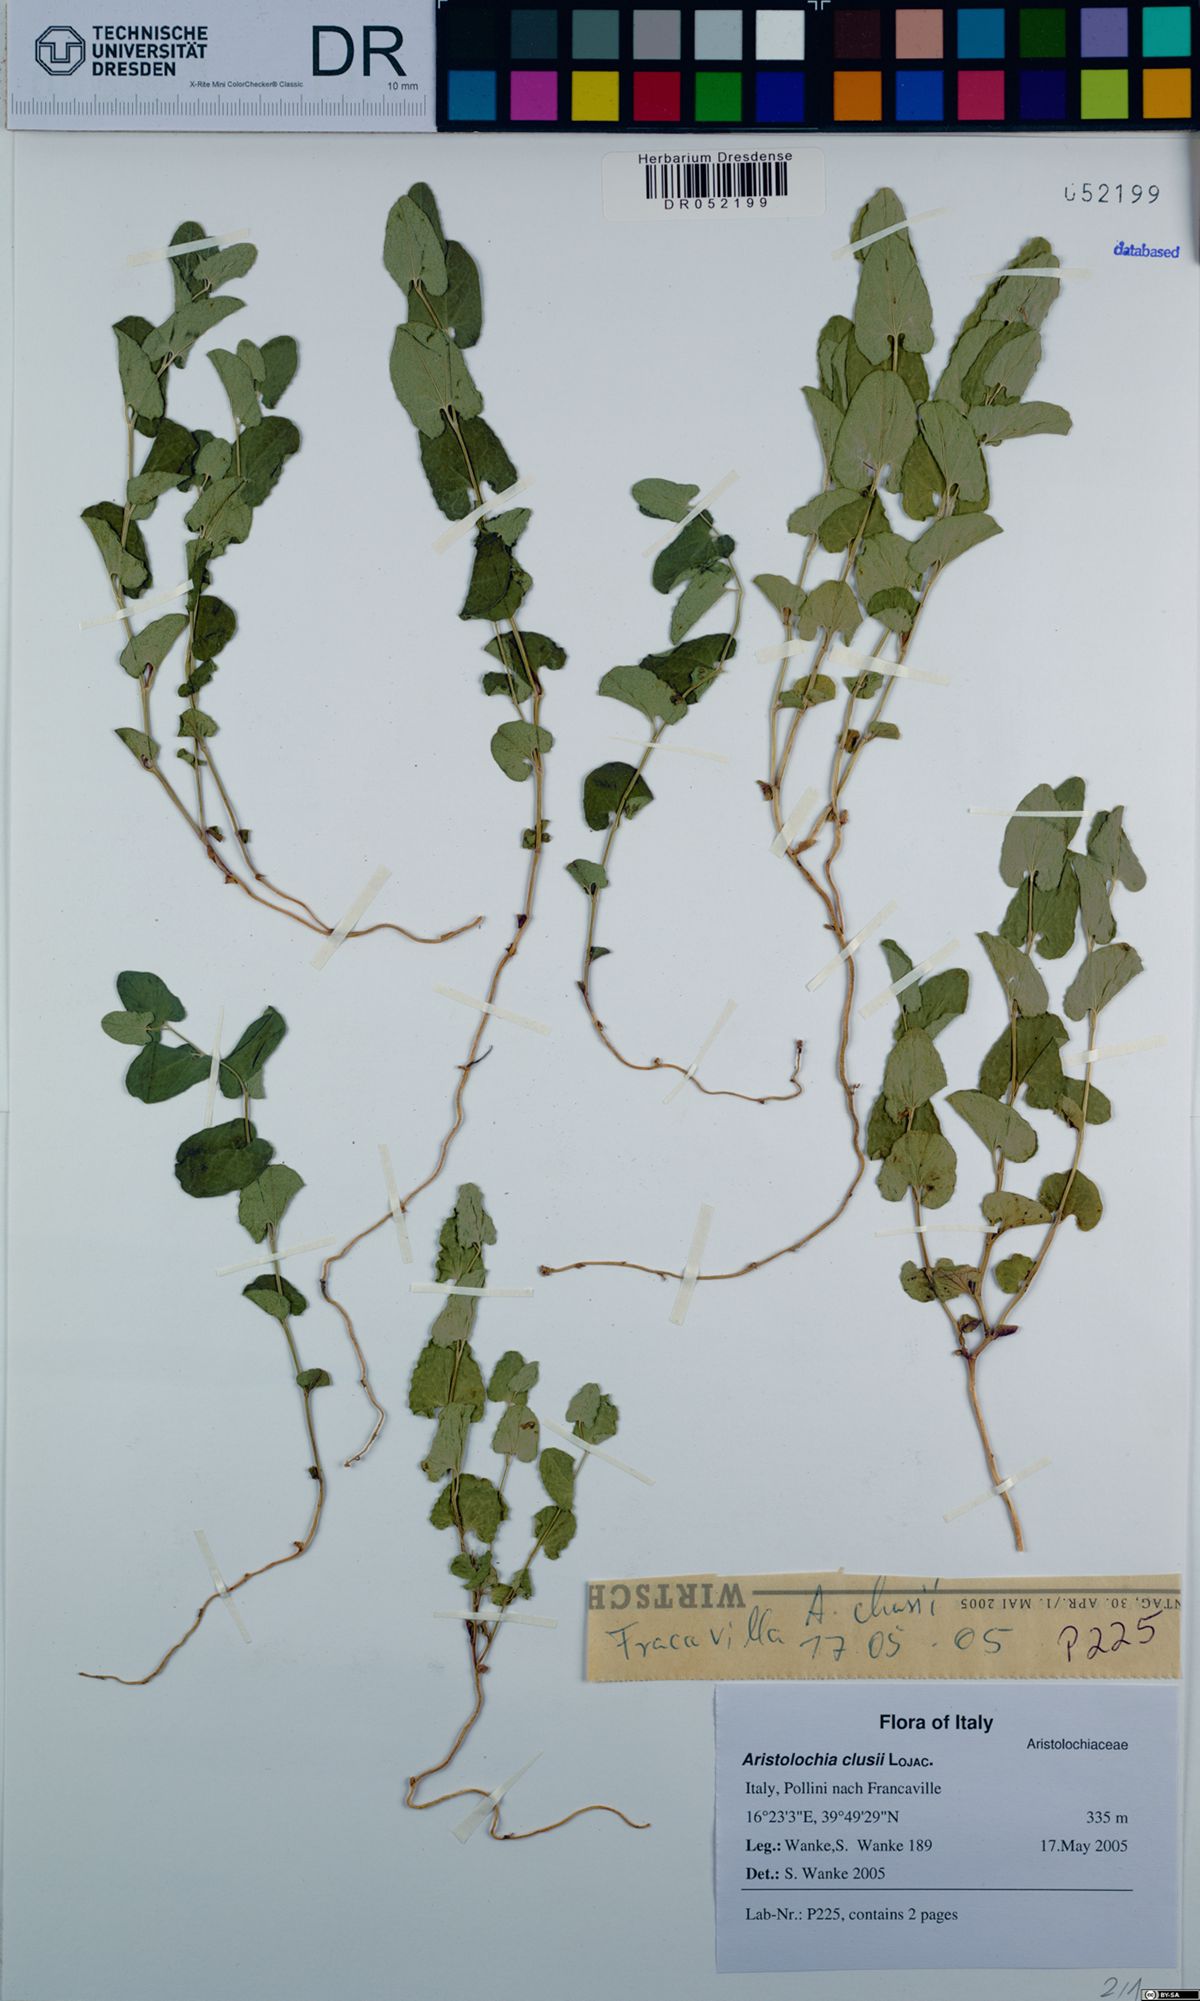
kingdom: Plantae
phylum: Tracheophyta
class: Magnoliopsida
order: Piperales
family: Aristolochiaceae
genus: Aristolochia
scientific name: Aristolochia clusii
